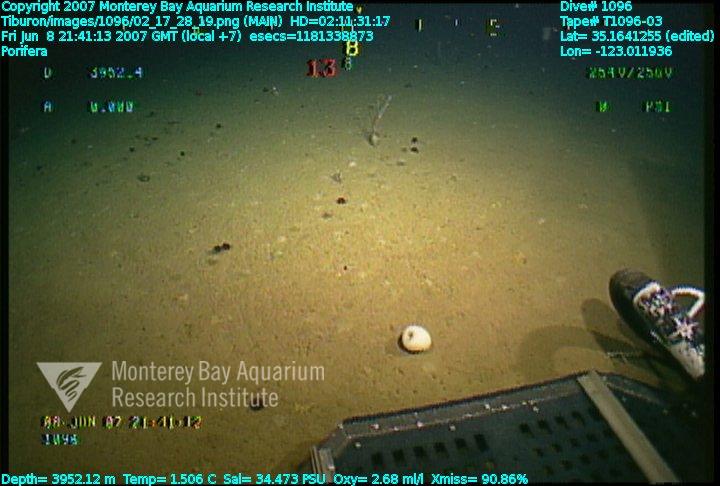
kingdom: Animalia
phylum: Porifera
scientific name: Porifera
